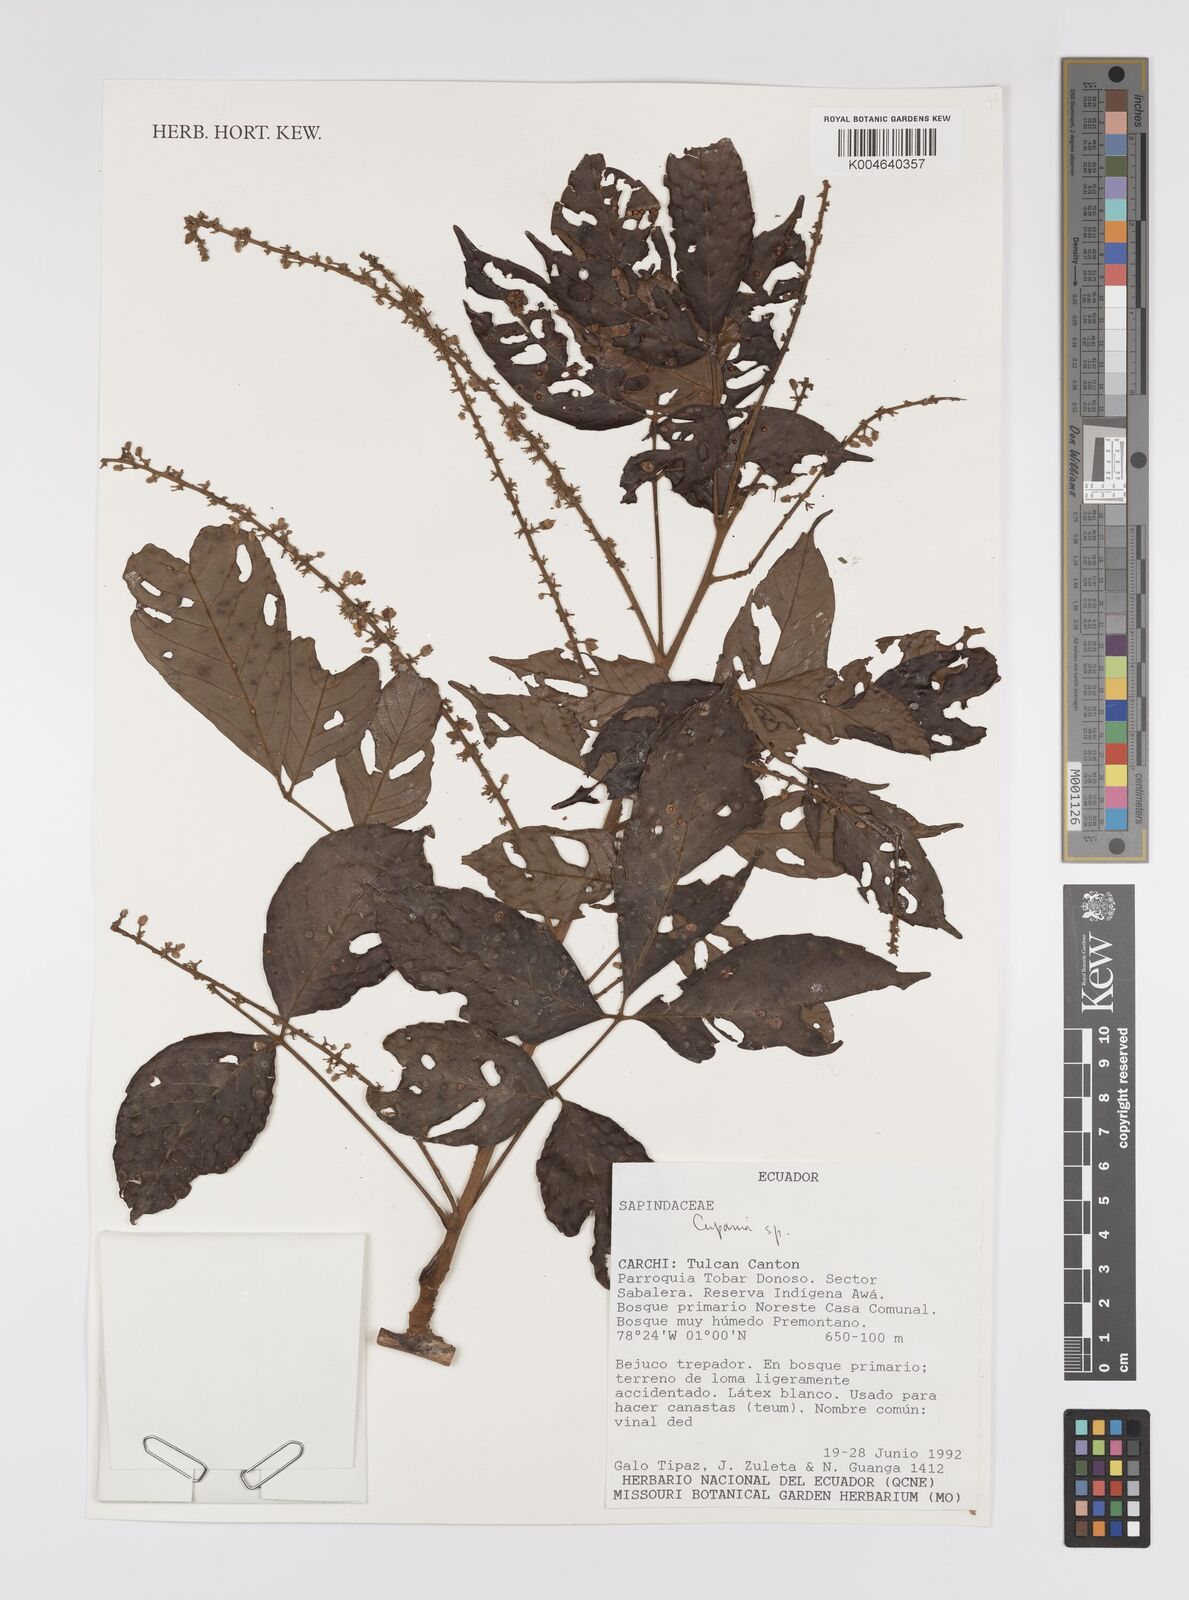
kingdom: Plantae
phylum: Tracheophyta
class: Magnoliopsida
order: Sapindales
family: Sapindaceae
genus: Cupania
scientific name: Cupania
